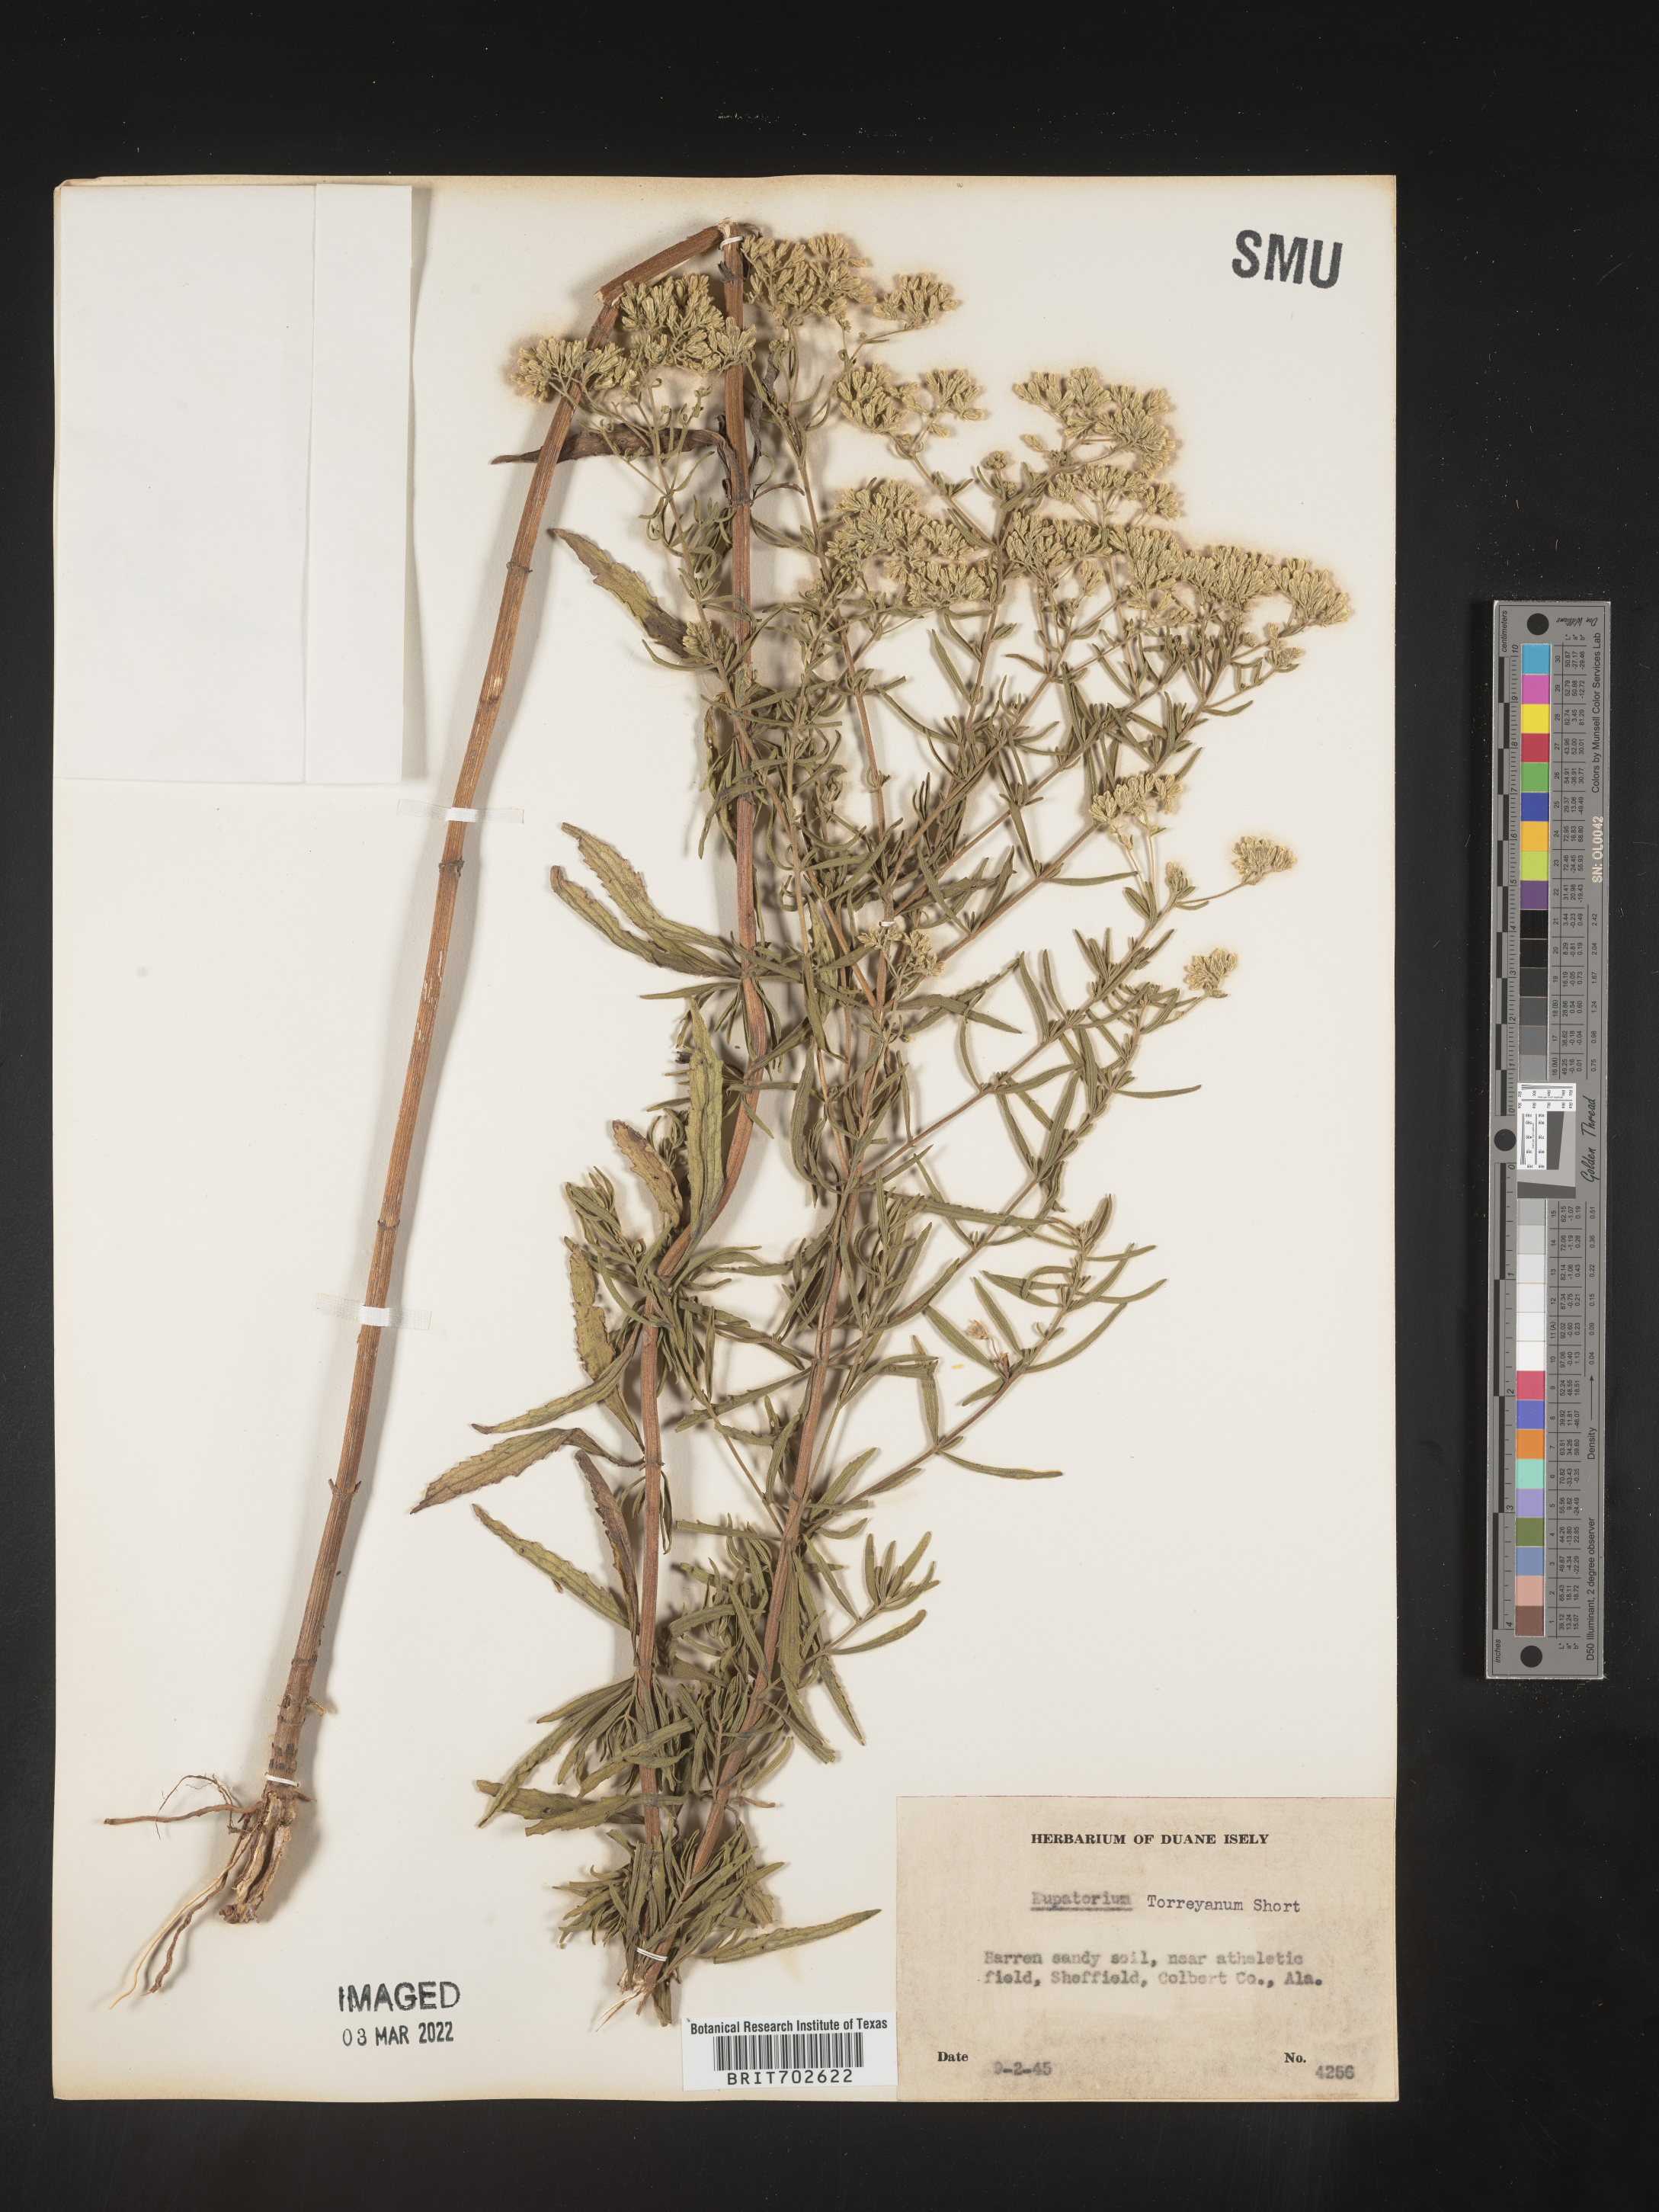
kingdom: Plantae
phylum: Tracheophyta
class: Magnoliopsida
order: Asterales
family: Asteraceae
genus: Eupatorium
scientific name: Eupatorium torreyanum
